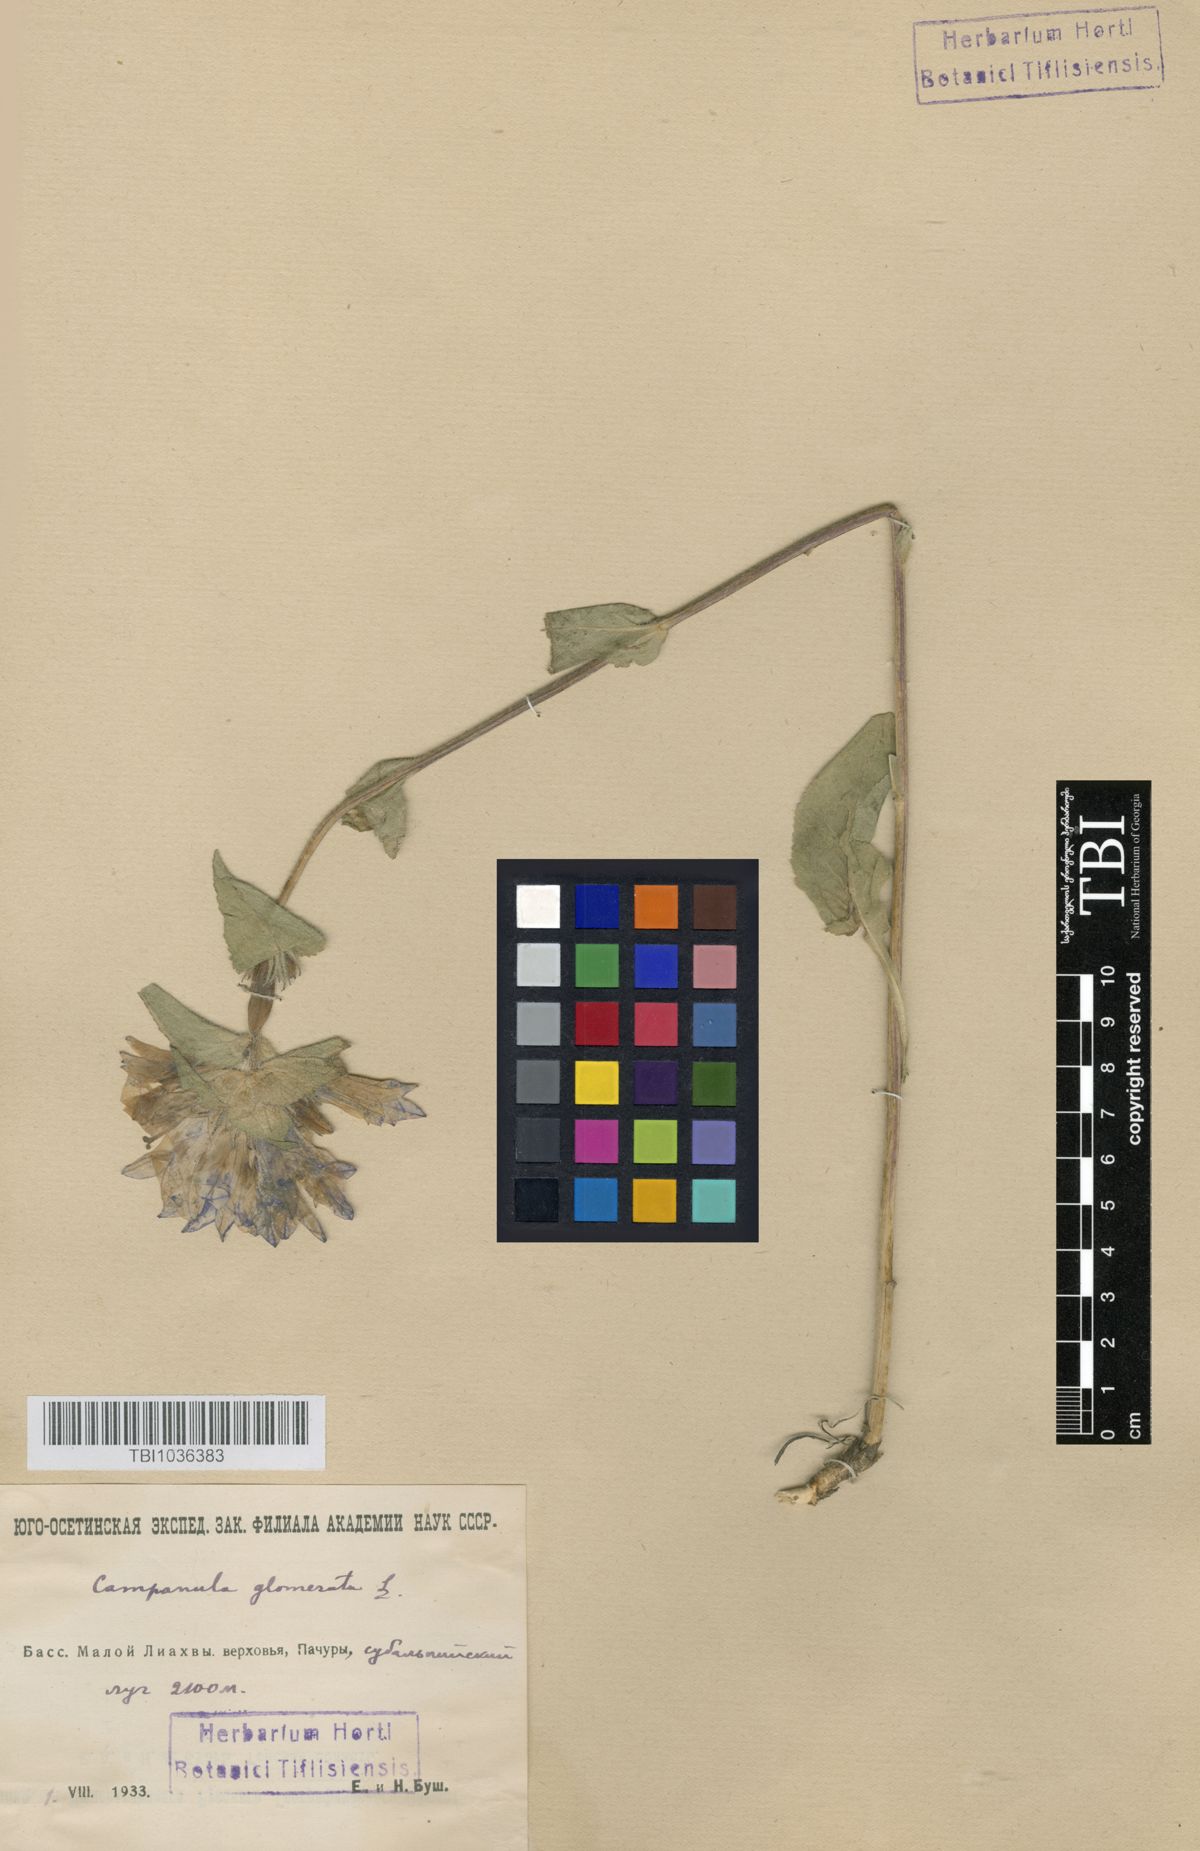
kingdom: Plantae
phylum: Tracheophyta
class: Magnoliopsida
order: Asterales
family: Campanulaceae
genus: Campanula
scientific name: Campanula glomerata
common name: Clustered bellflower
